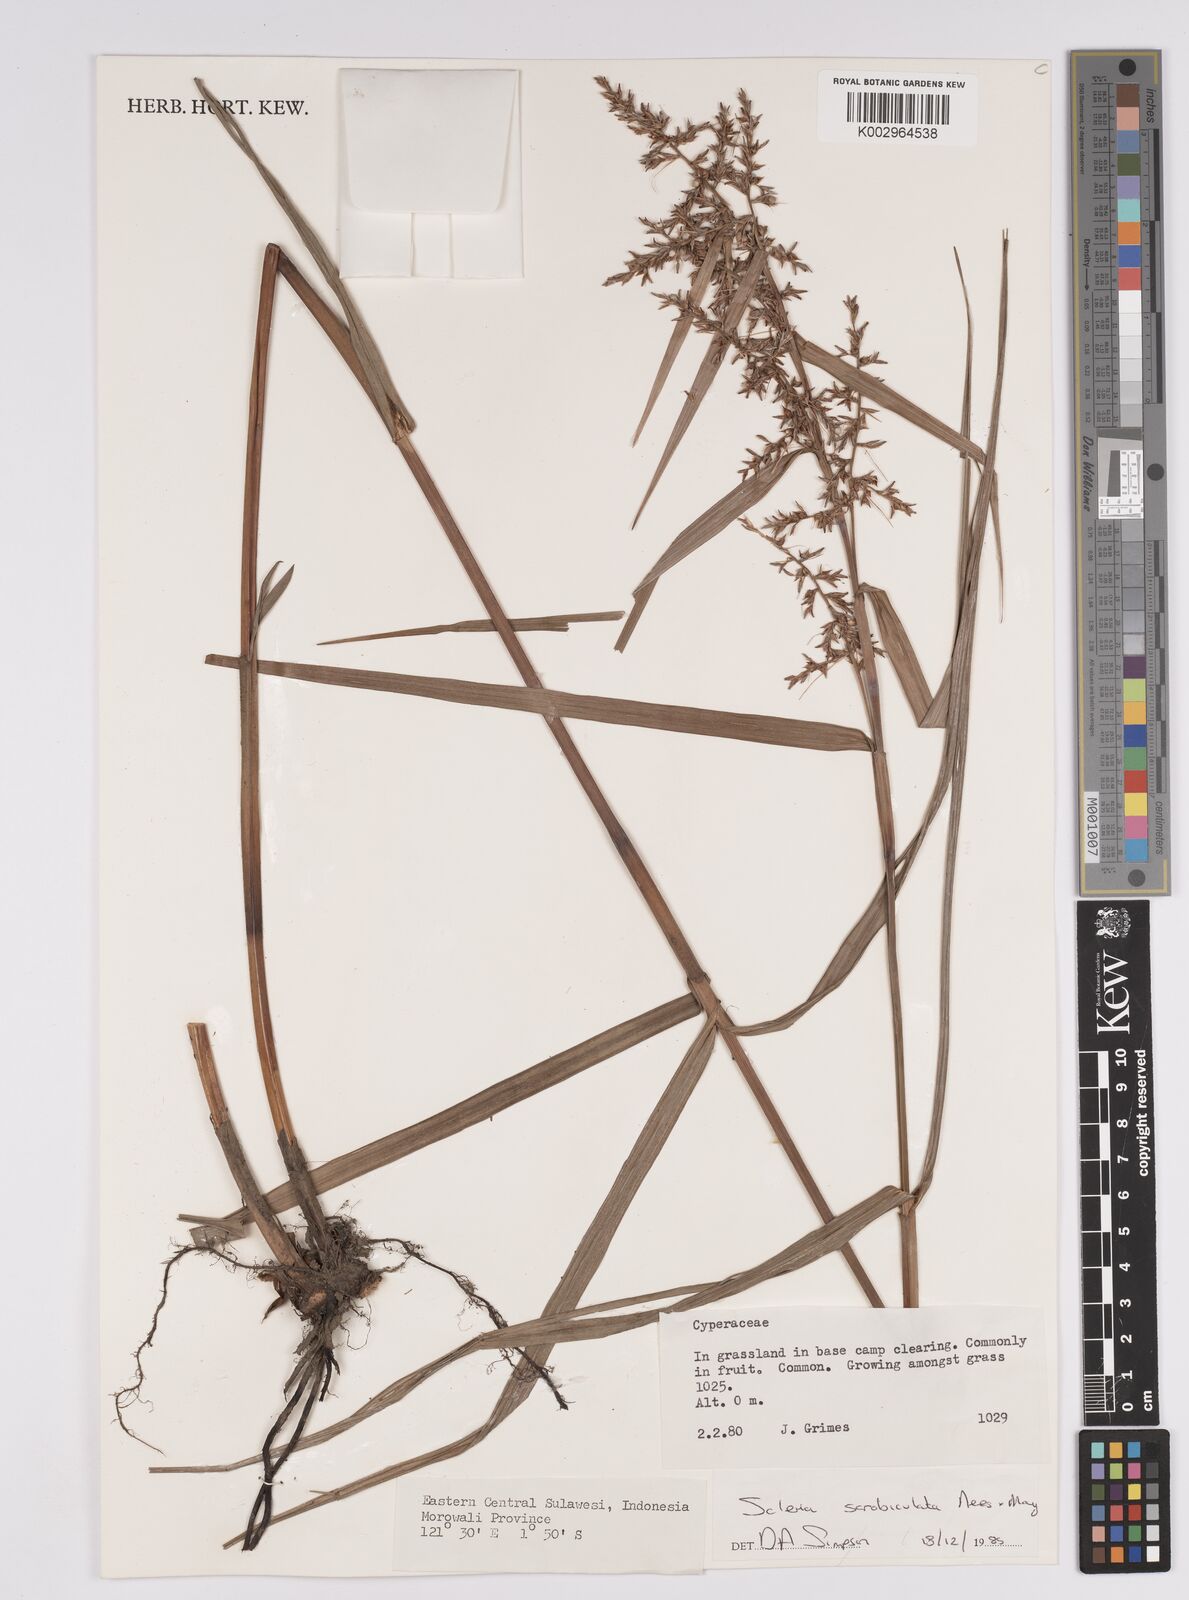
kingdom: Plantae
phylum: Tracheophyta
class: Liliopsida
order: Poales
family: Cyperaceae
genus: Scleria
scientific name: Scleria scrobiculata
